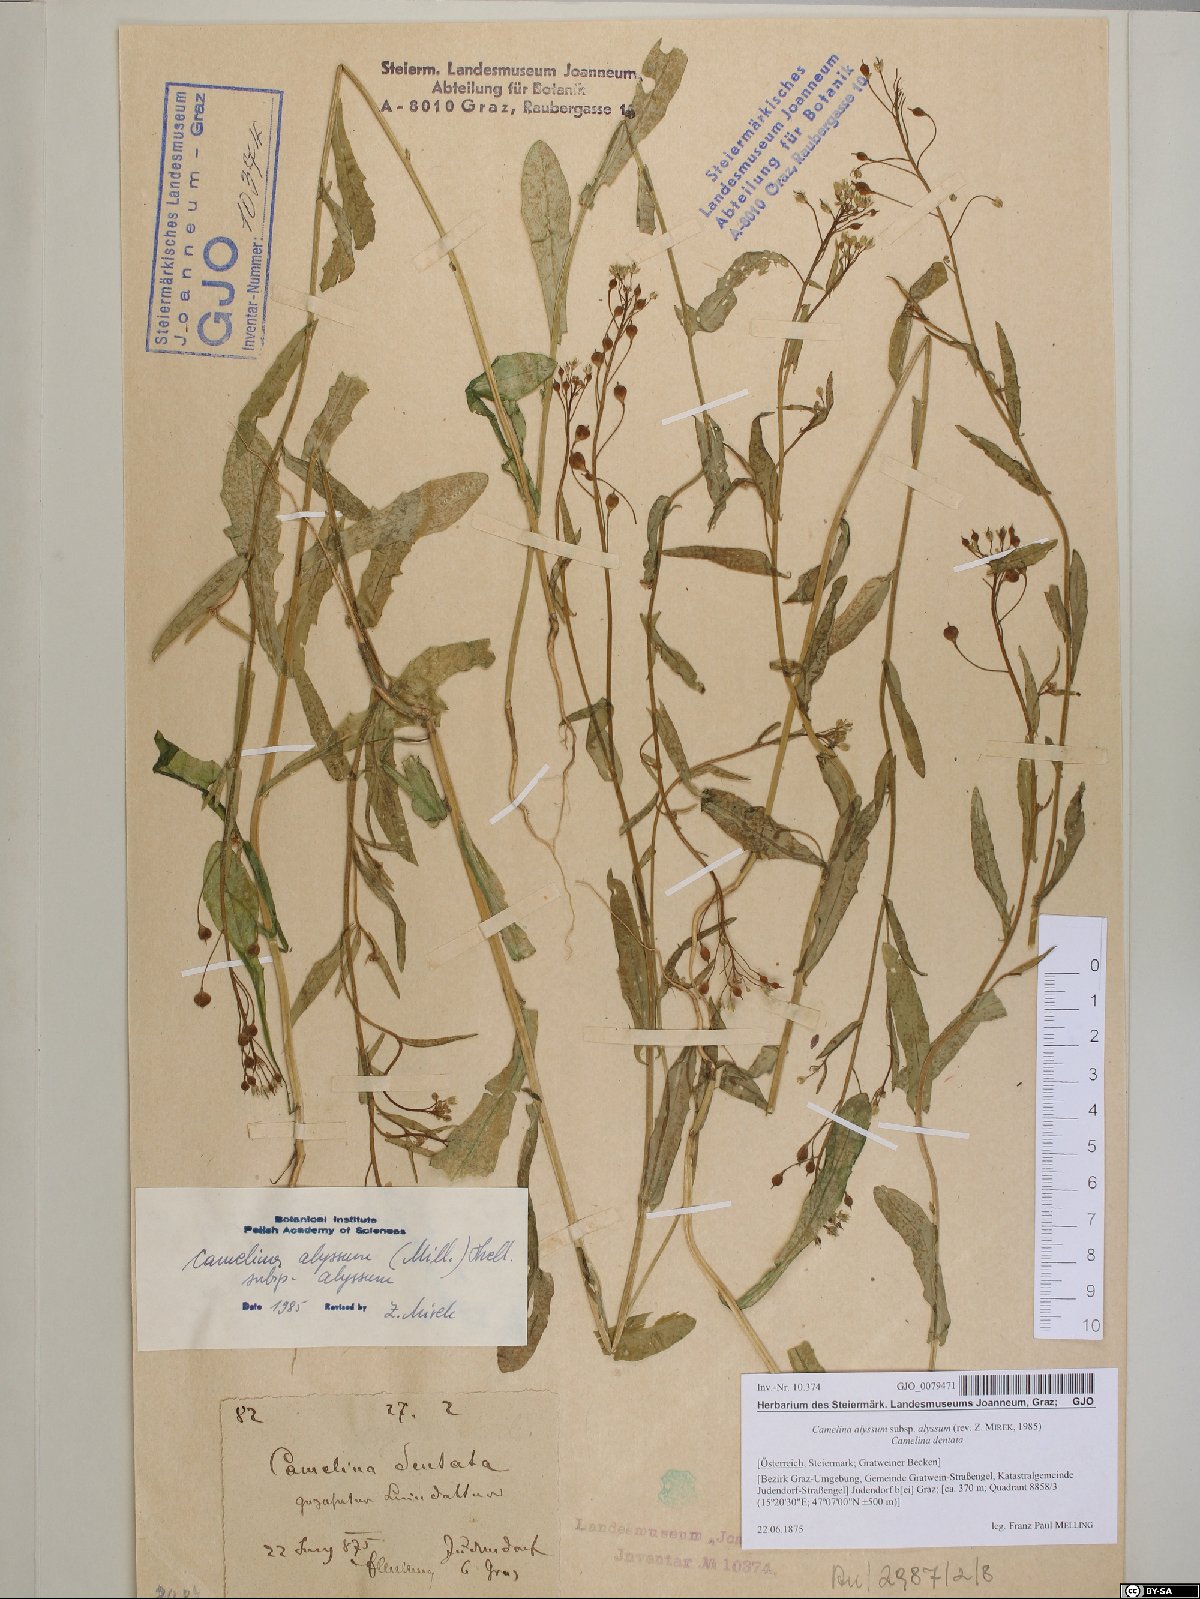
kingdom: Plantae
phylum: Tracheophyta
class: Magnoliopsida
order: Brassicales
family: Brassicaceae
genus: Camelina
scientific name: Camelina alyssum
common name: Gold-of-pleasure
